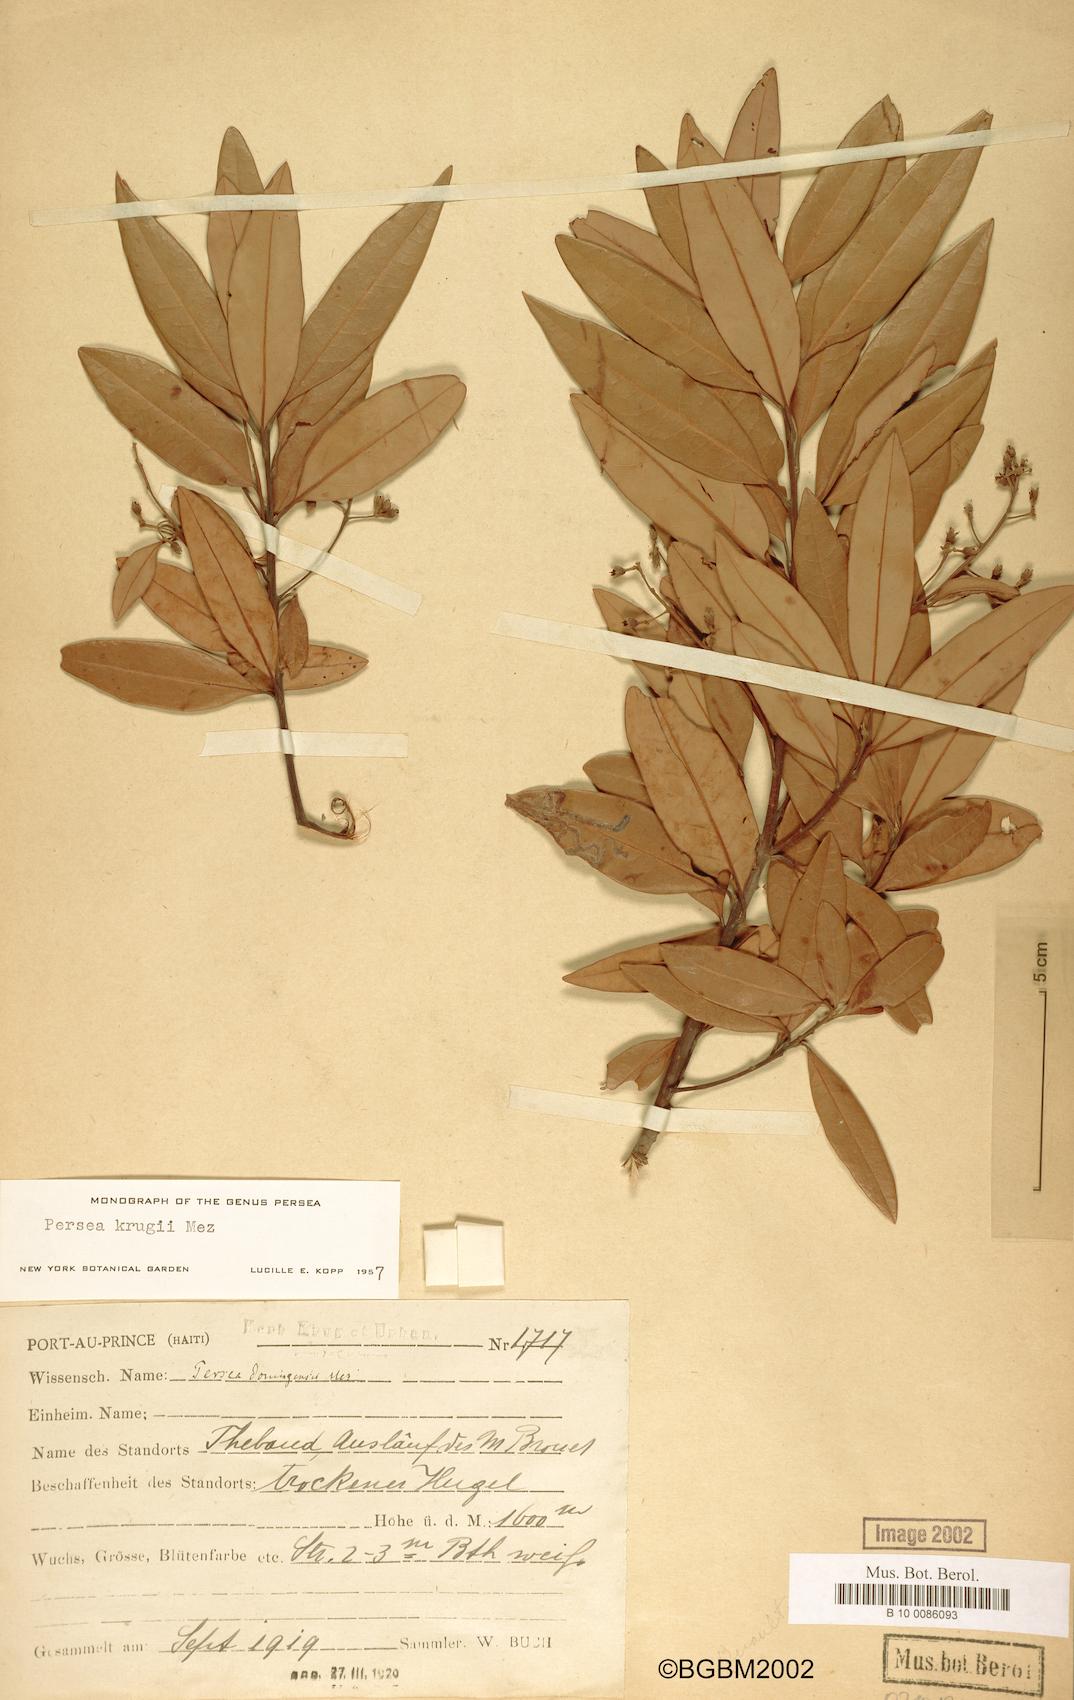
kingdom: Plantae
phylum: Tracheophyta
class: Magnoliopsida
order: Laurales
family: Lauraceae
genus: Persea
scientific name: Persea krugii
